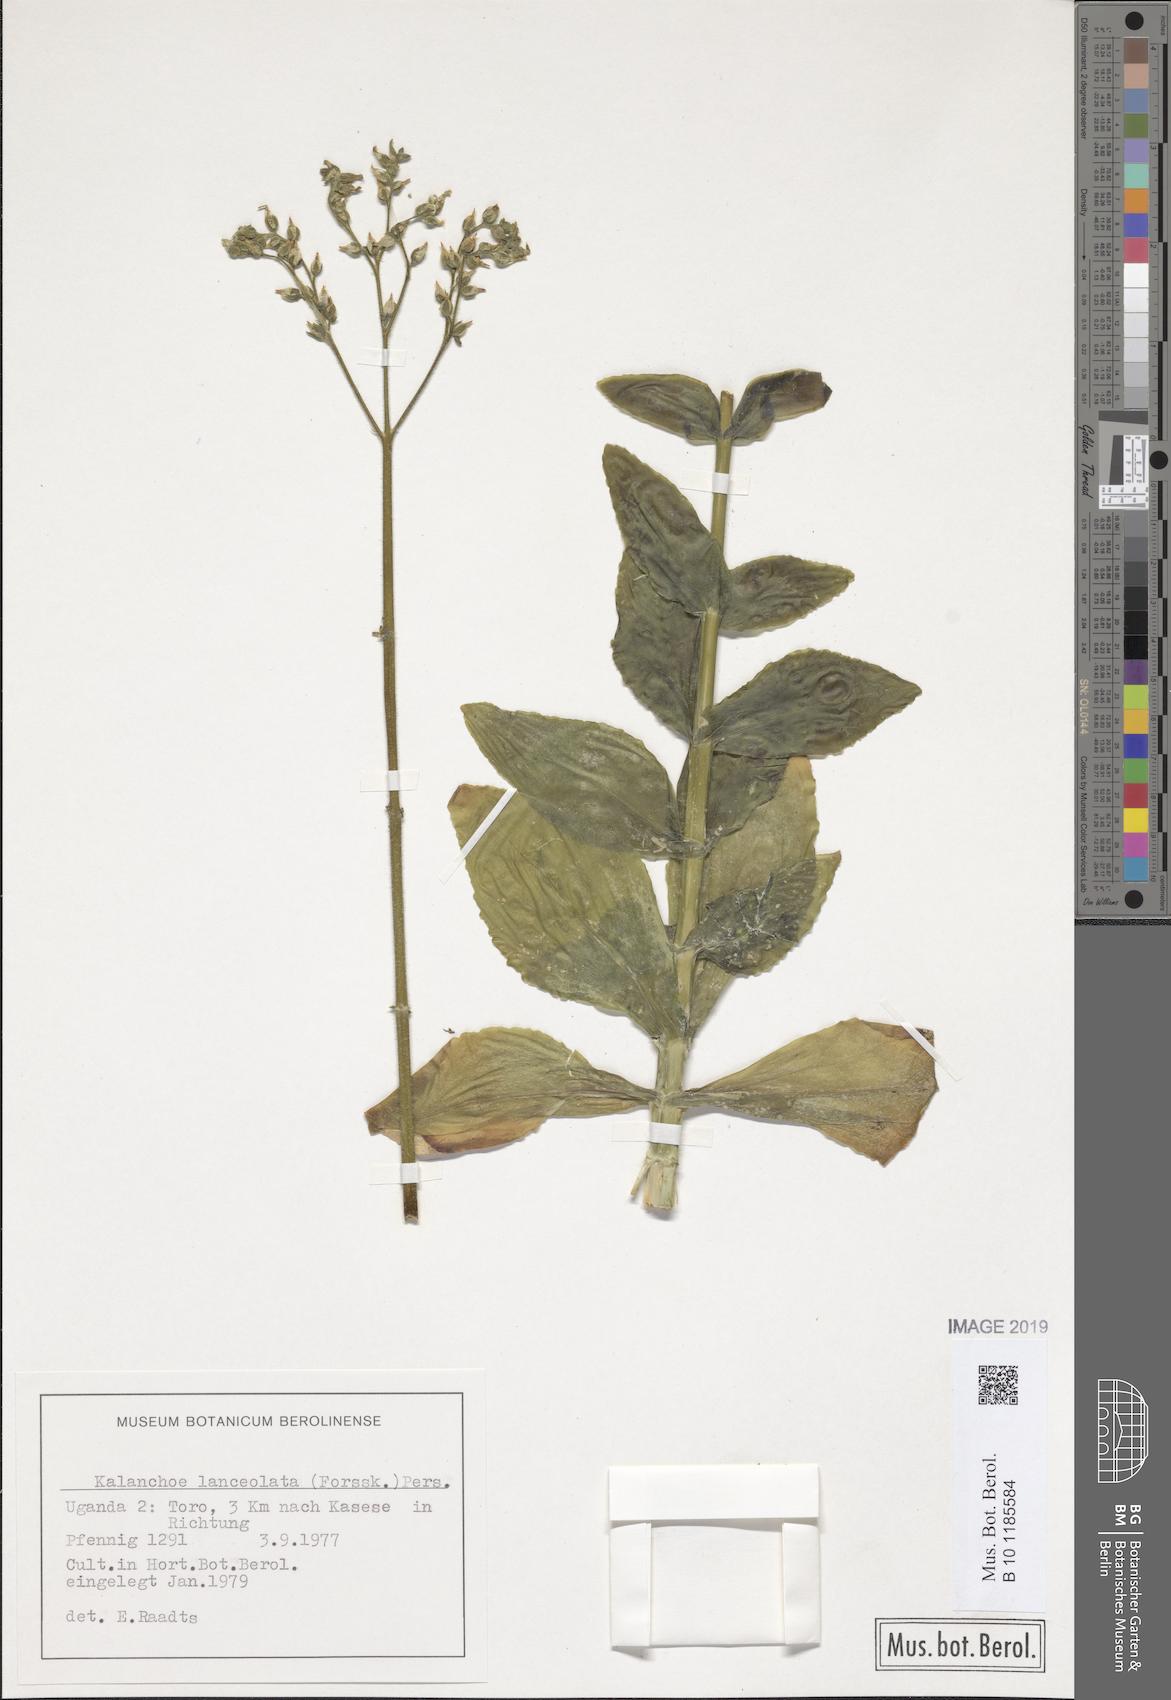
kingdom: Plantae
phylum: Tracheophyta
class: Magnoliopsida
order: Saxifragales
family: Crassulaceae
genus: Kalanchoe
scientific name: Kalanchoe lanceolata
